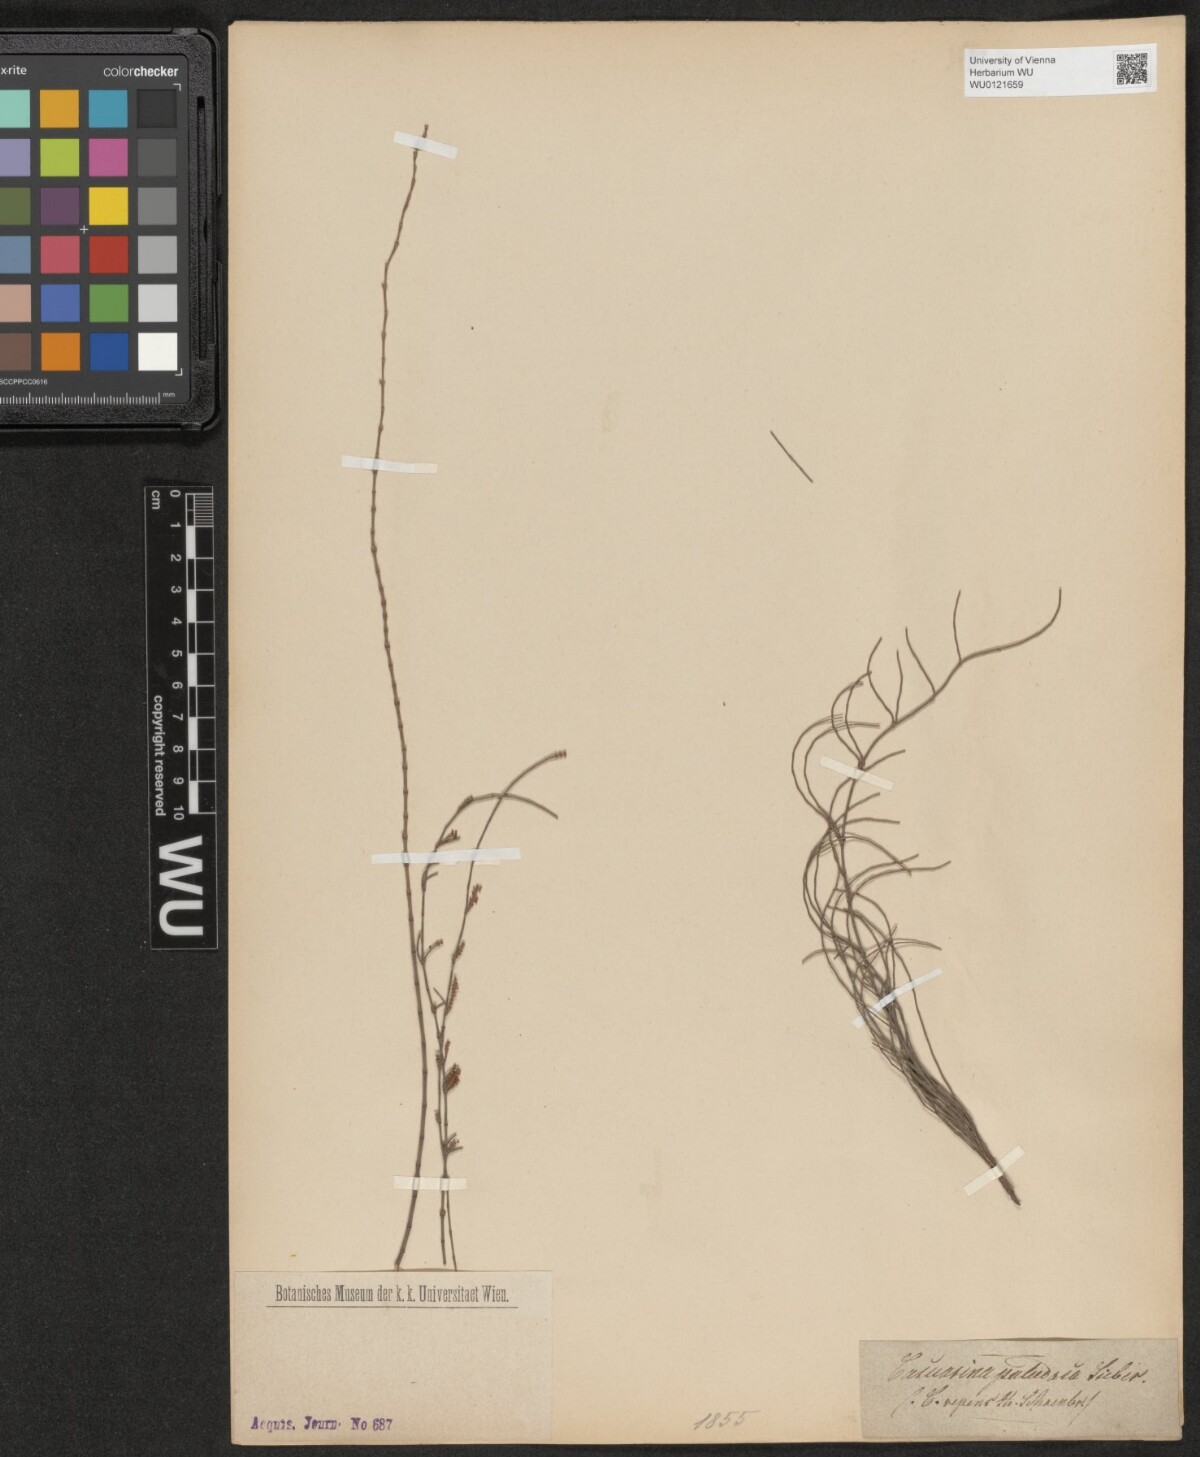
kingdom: Plantae
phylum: Tracheophyta
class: Magnoliopsida
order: Fagales
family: Casuarinaceae
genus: Allocasuarina
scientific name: Allocasuarina paludosa
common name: Scrub she-oak
